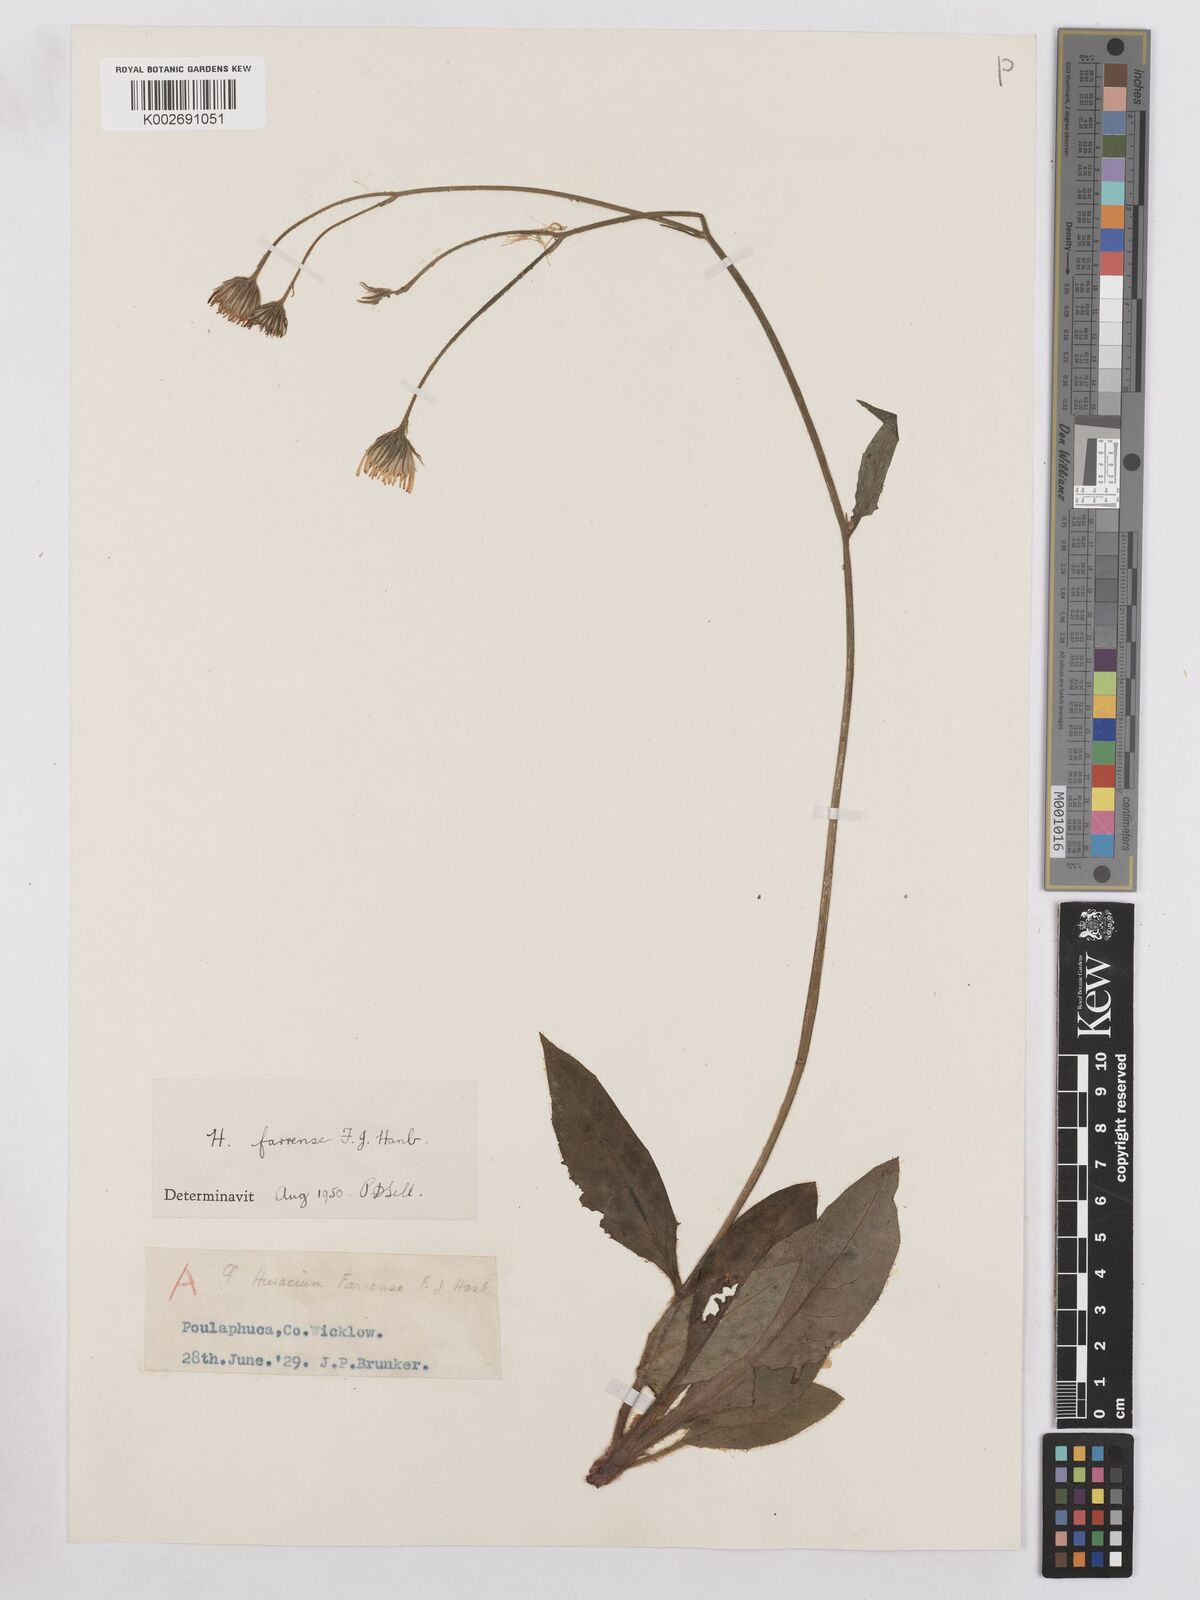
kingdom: Plantae
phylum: Tracheophyta
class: Magnoliopsida
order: Asterales
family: Asteraceae
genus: Hieracium
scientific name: Hieracium farrense
